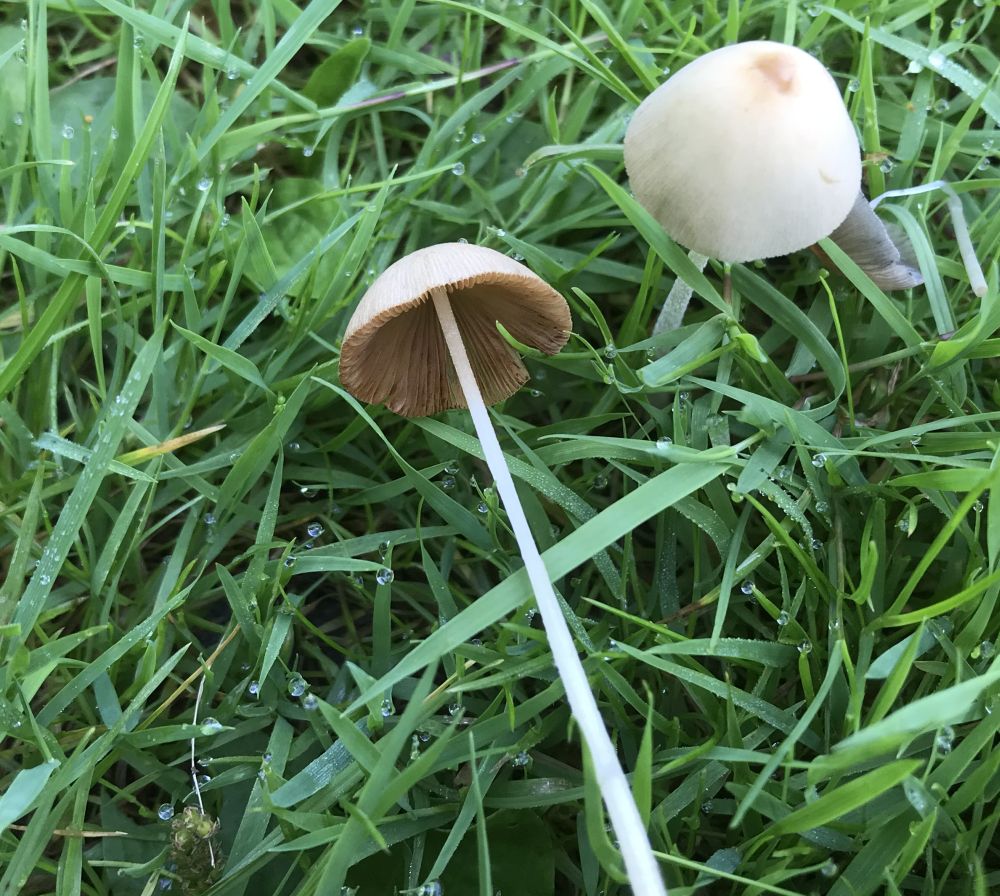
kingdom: Fungi
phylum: Basidiomycota
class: Agaricomycetes
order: Agaricales
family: Bolbitiaceae
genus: Conocybe
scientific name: Conocybe
